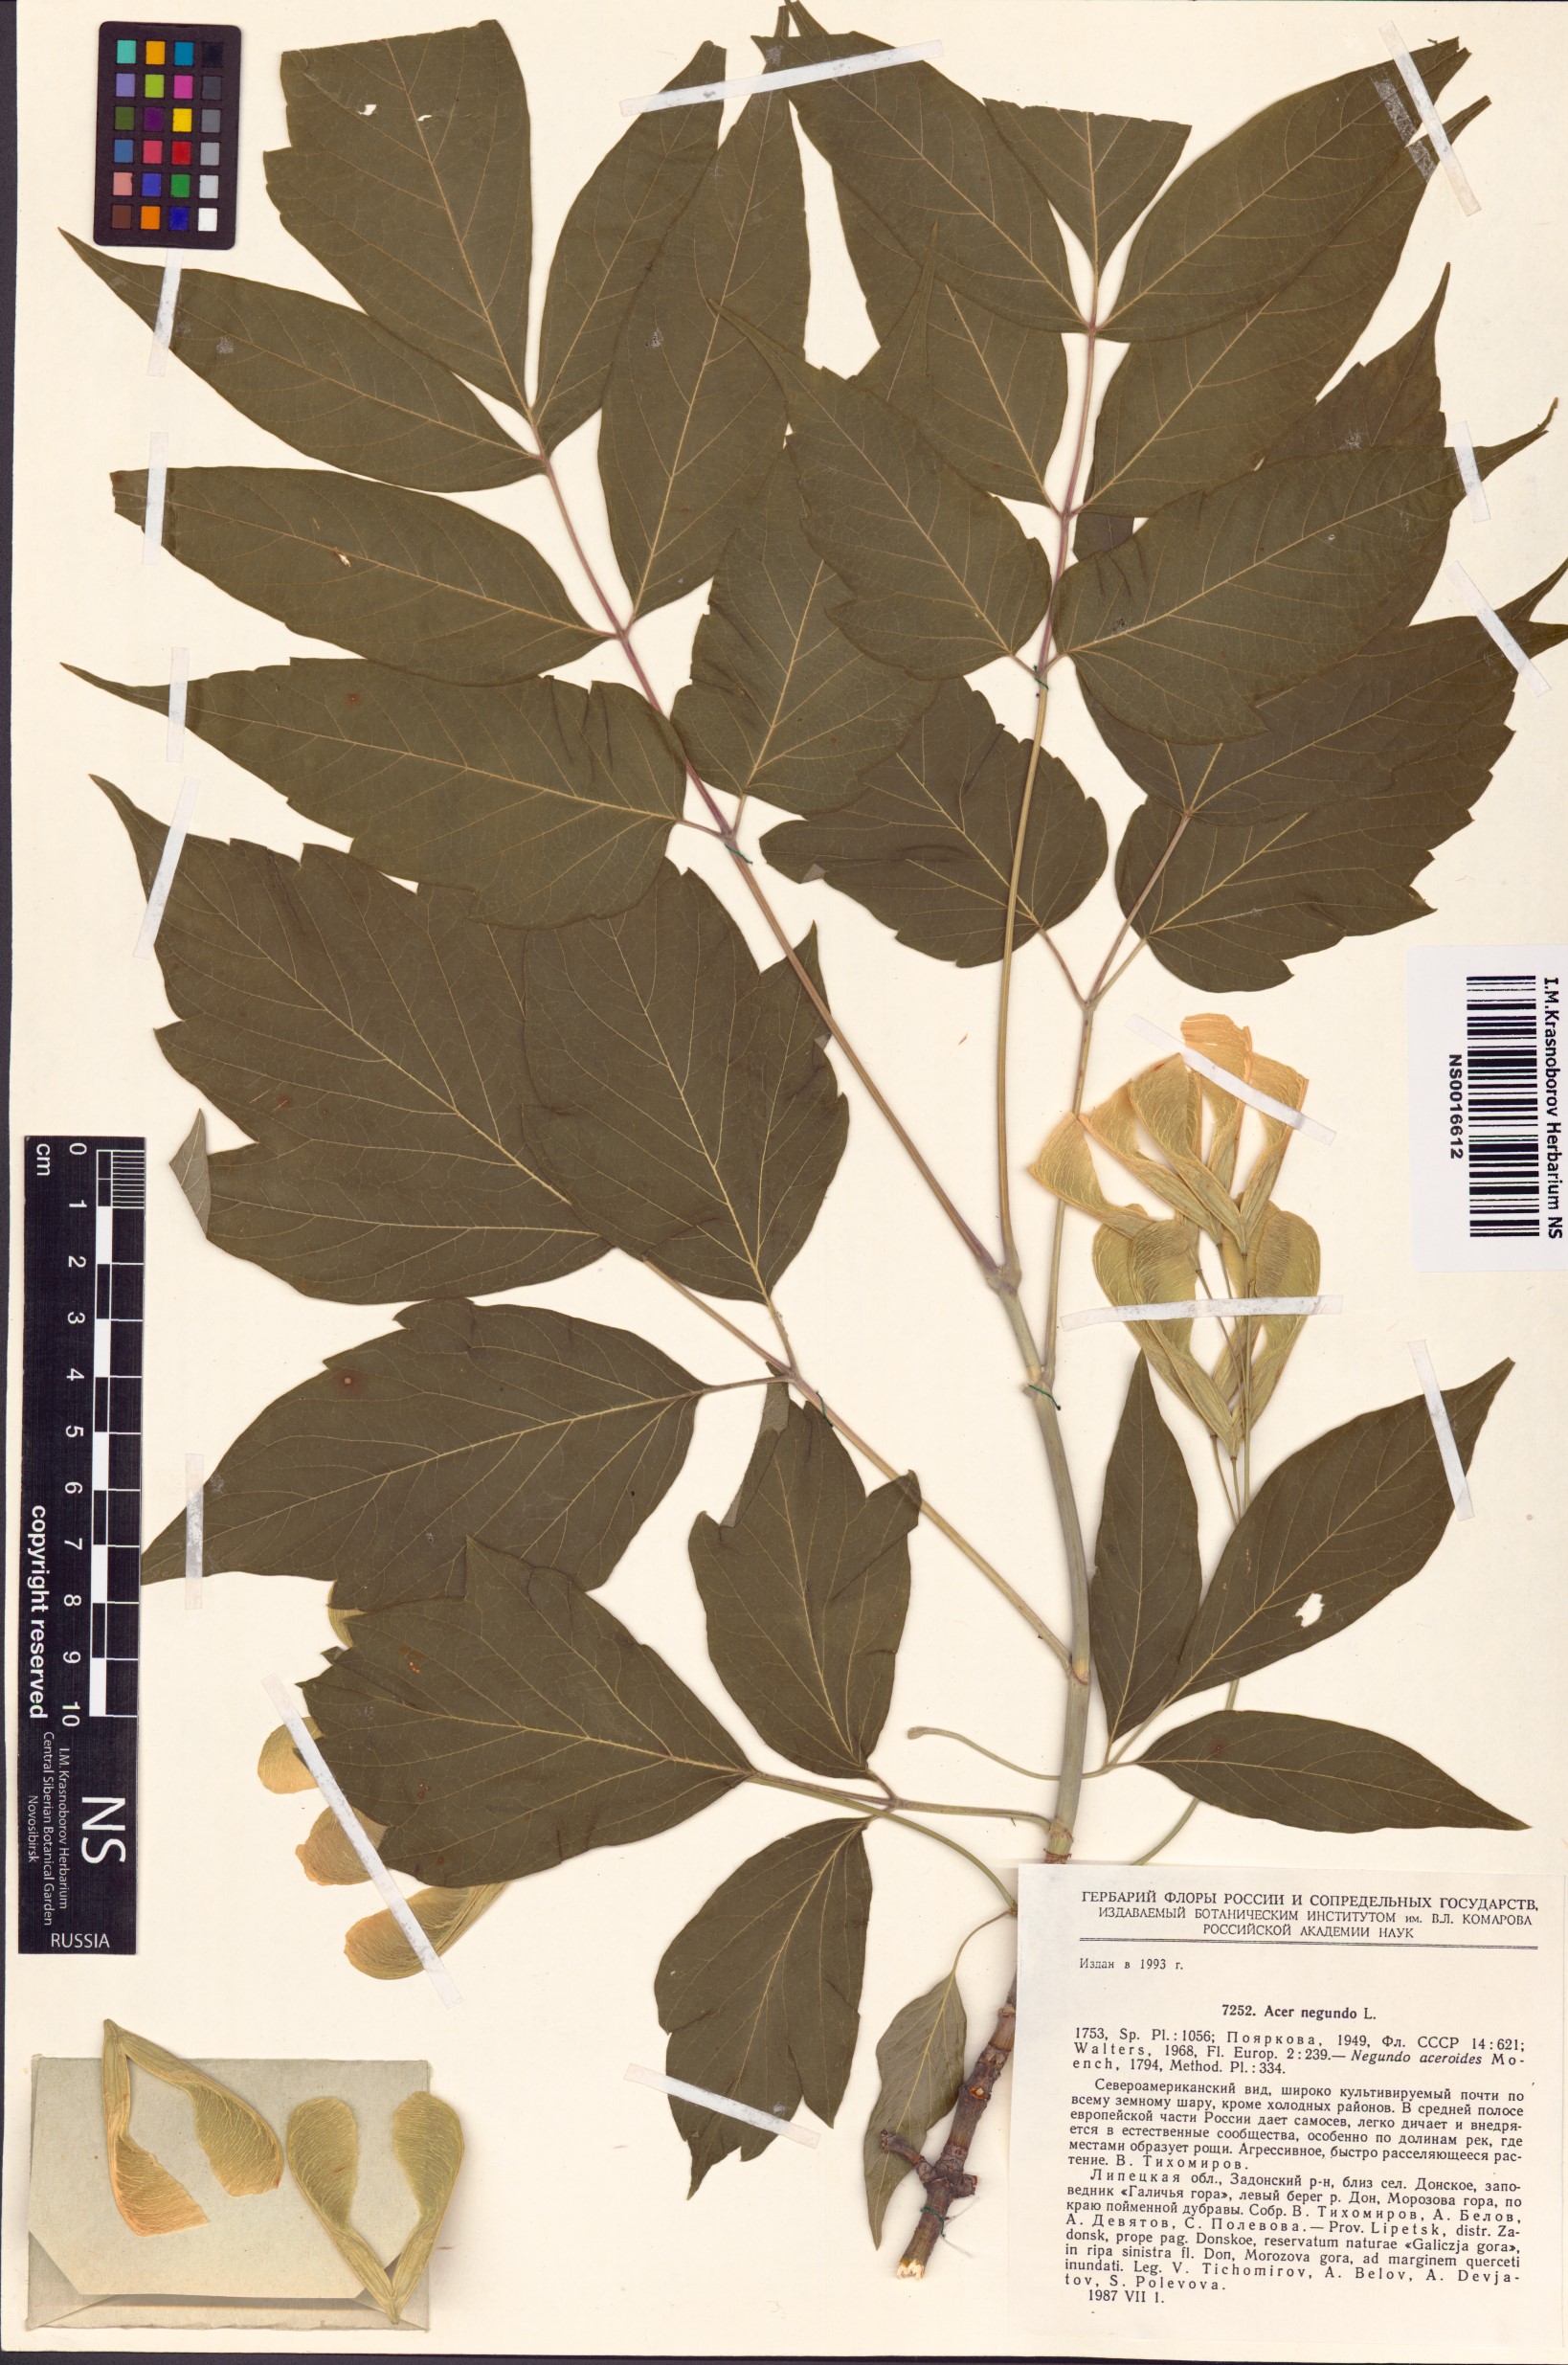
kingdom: Plantae
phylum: Tracheophyta
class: Magnoliopsida
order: Sapindales
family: Sapindaceae
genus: Acer
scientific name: Acer negundo
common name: Ashleaf maple
